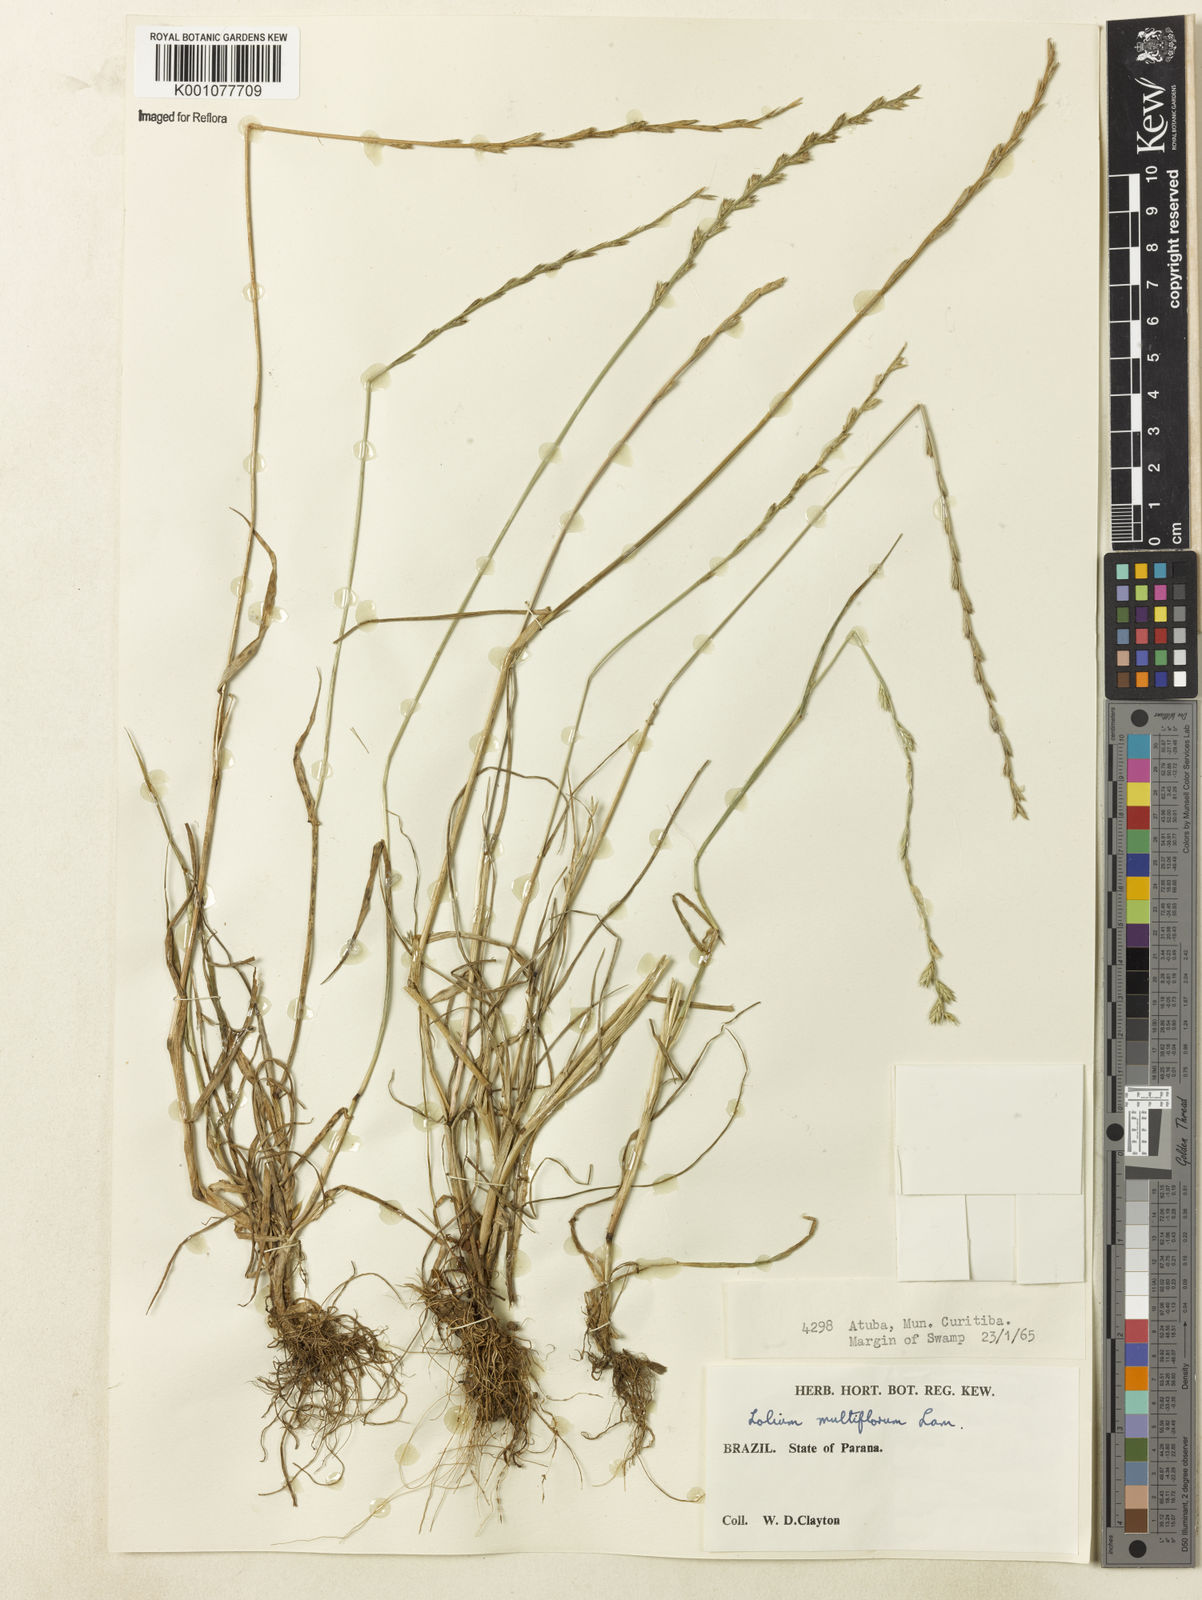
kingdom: Plantae
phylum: Tracheophyta
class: Liliopsida
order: Poales
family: Poaceae
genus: Lolium
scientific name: Lolium multiflorum
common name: Annual ryegrass
